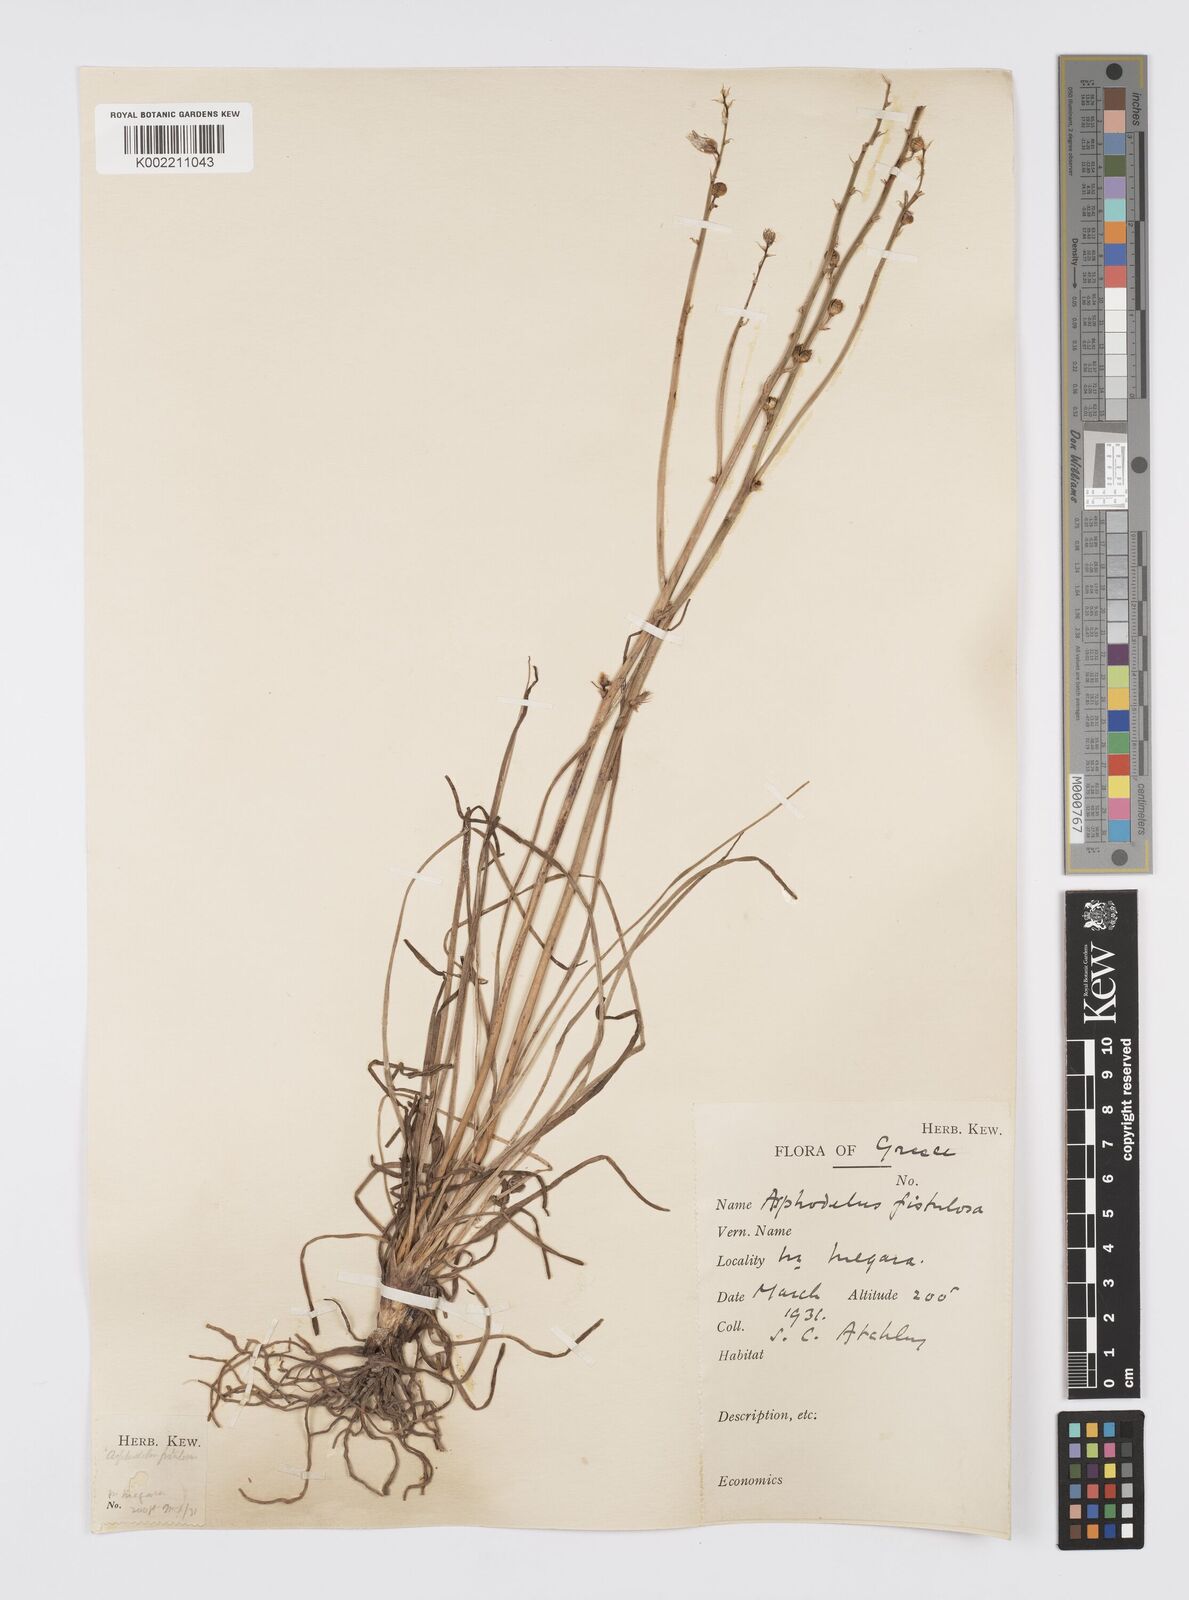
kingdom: Plantae
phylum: Tracheophyta
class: Liliopsida
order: Asparagales
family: Asphodelaceae
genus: Asphodelus
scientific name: Asphodelus fistulosus
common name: Onionweed
